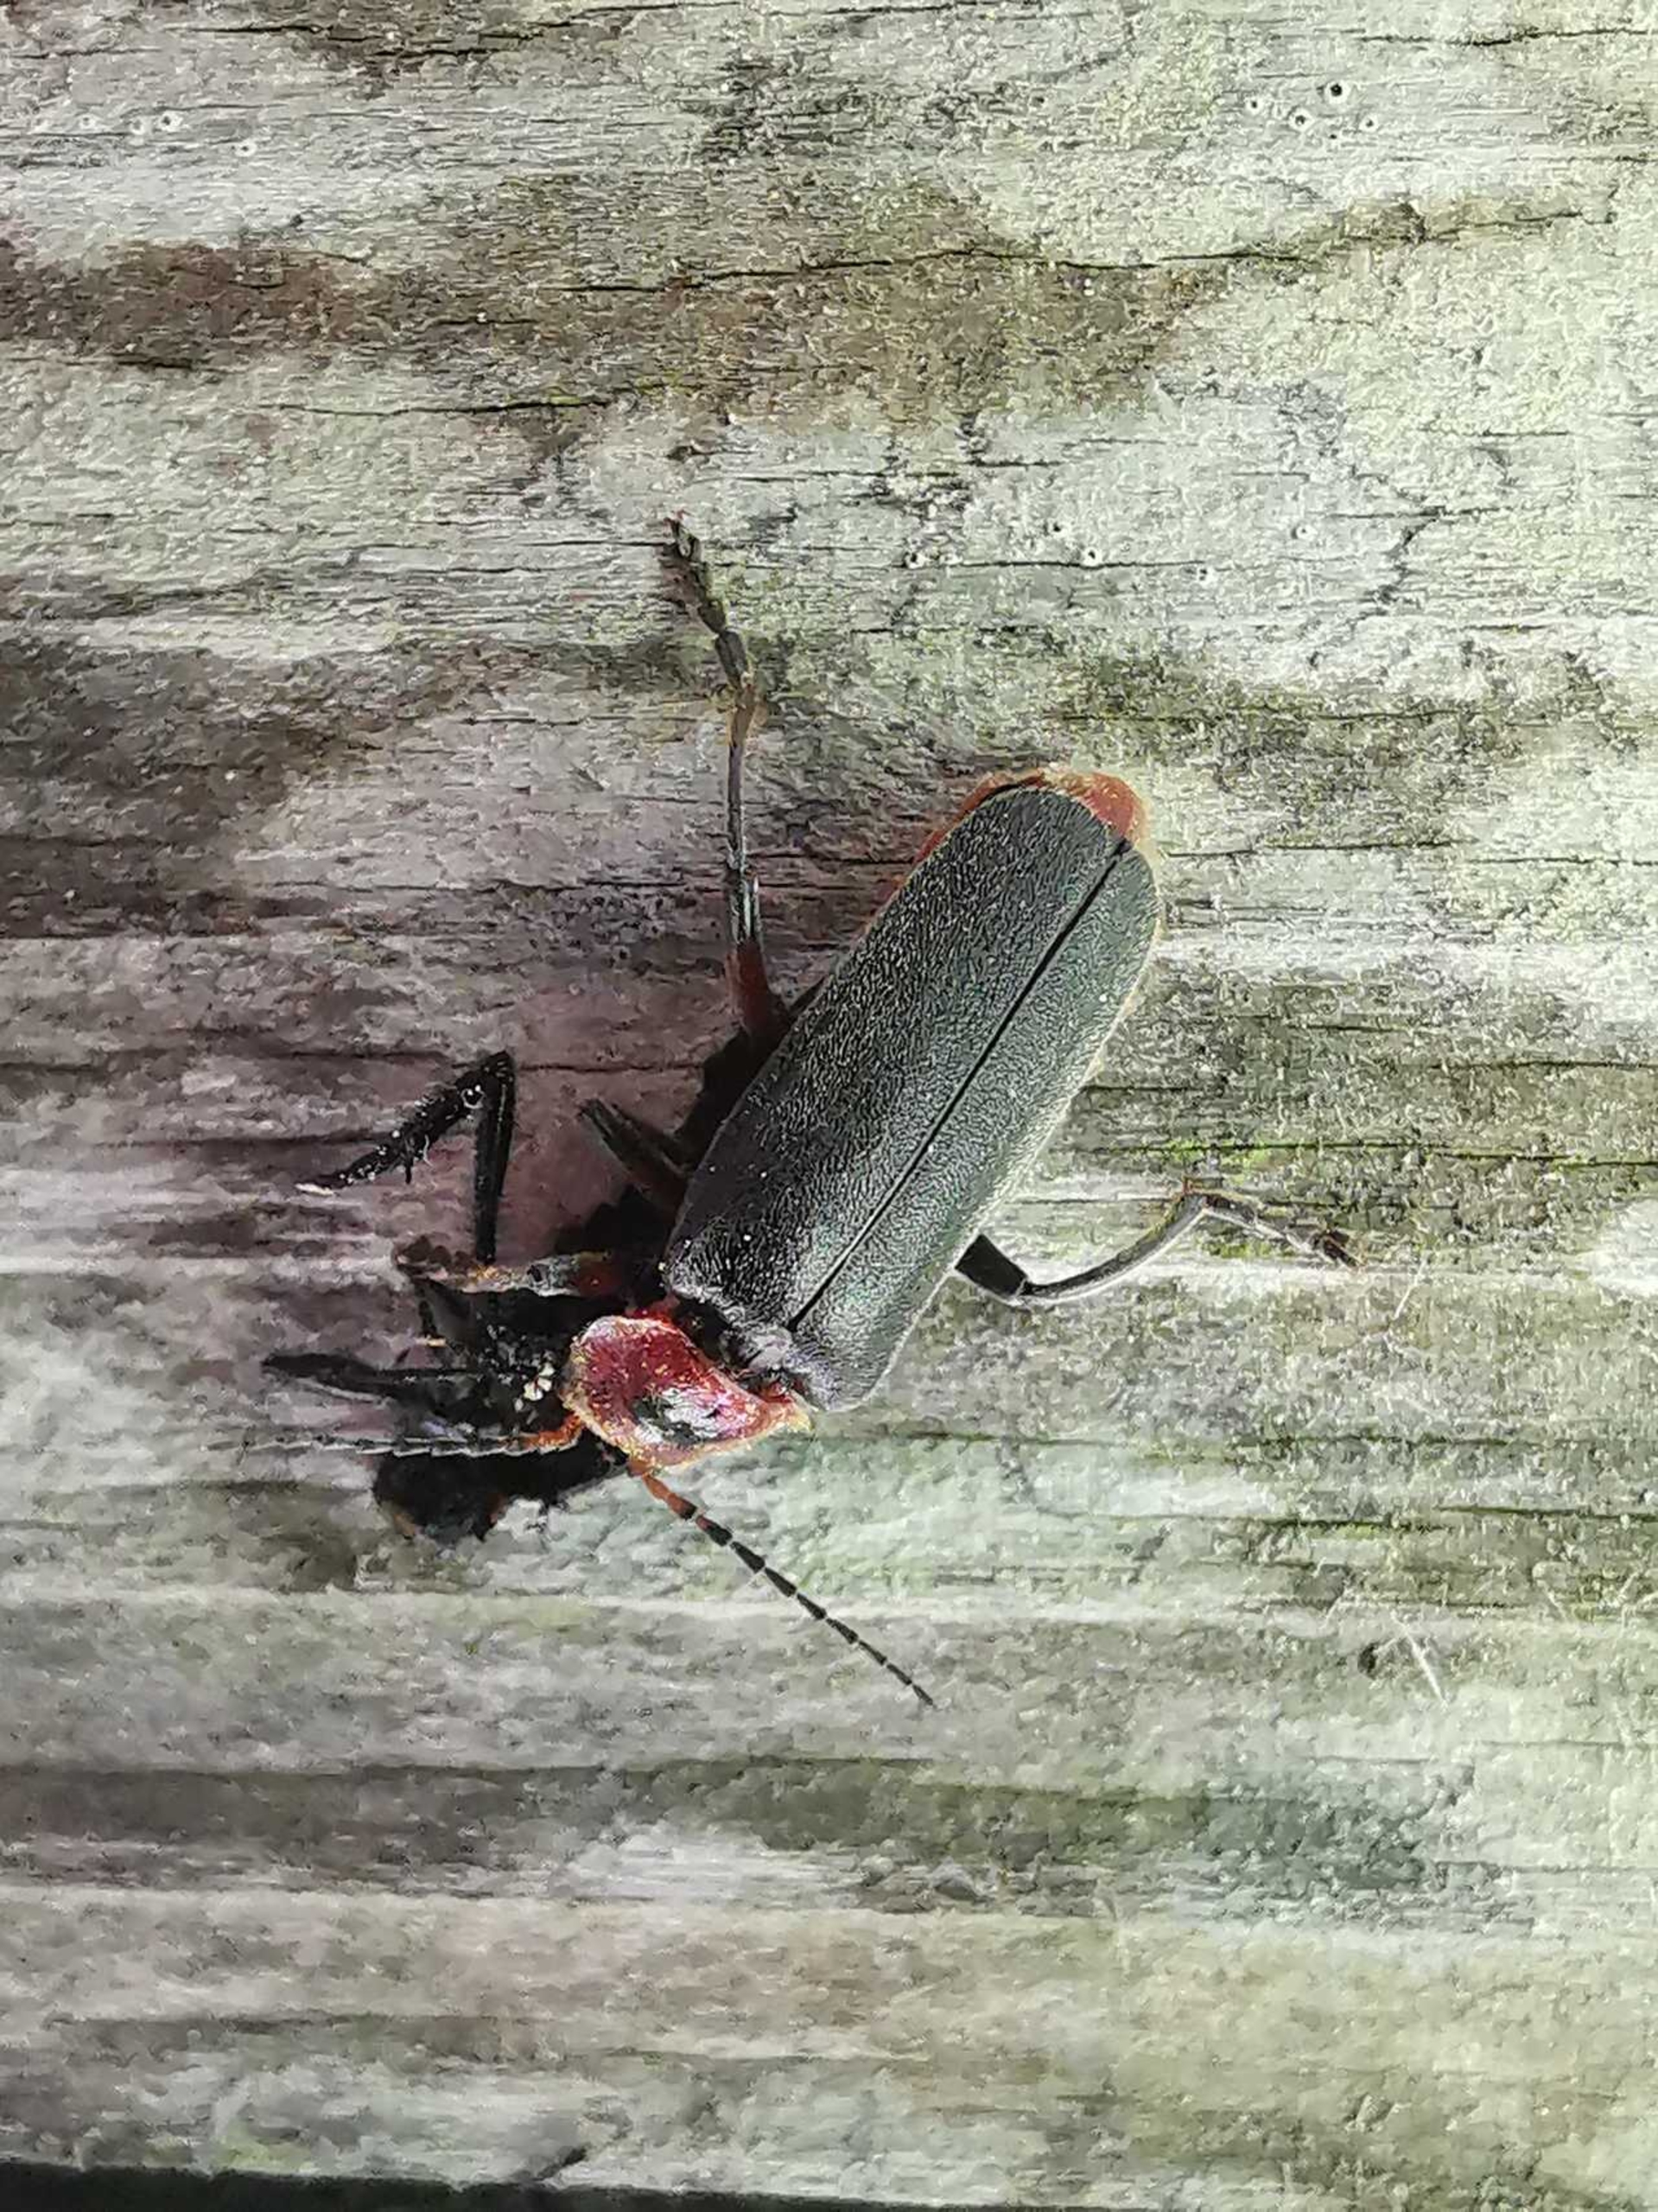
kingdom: Animalia
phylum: Arthropoda
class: Insecta
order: Coleoptera
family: Cantharidae
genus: Cantharis
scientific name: Cantharis fusca
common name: Stor blødvinge
